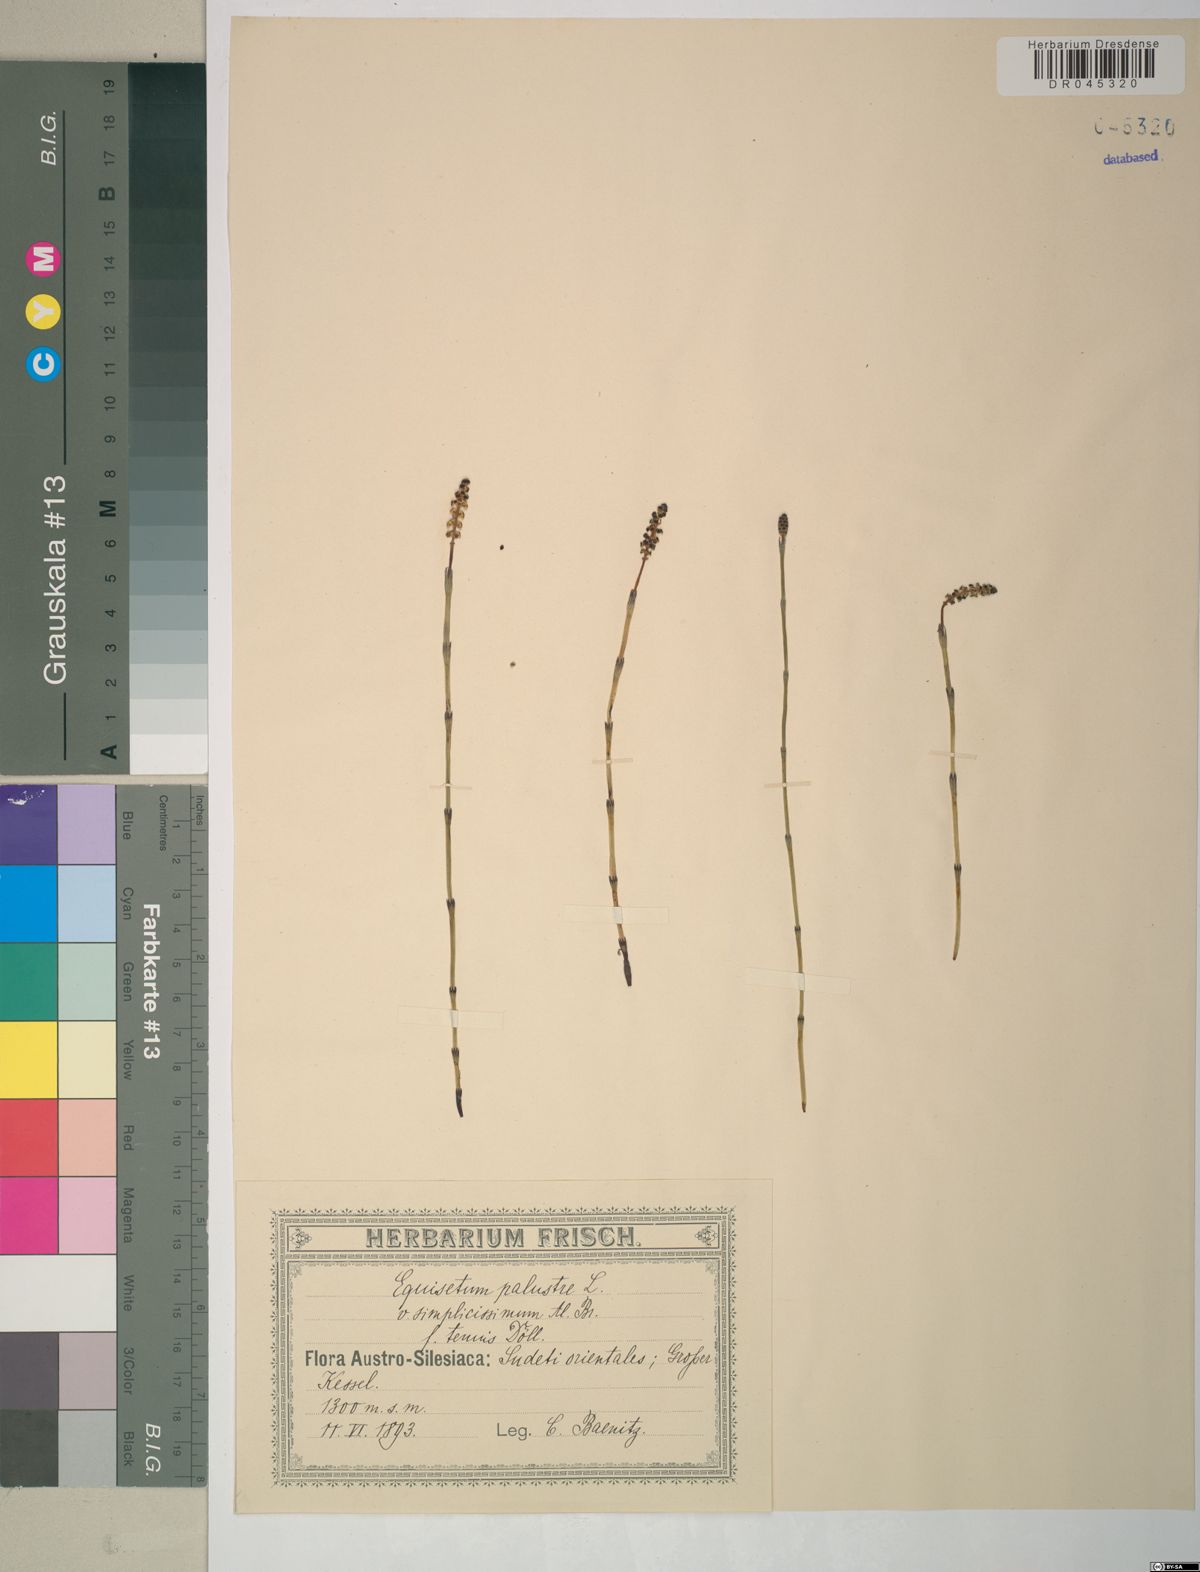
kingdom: Plantae
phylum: Tracheophyta
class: Polypodiopsida
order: Equisetales
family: Equisetaceae
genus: Equisetum
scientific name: Equisetum palustre
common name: Marsh horsetail
